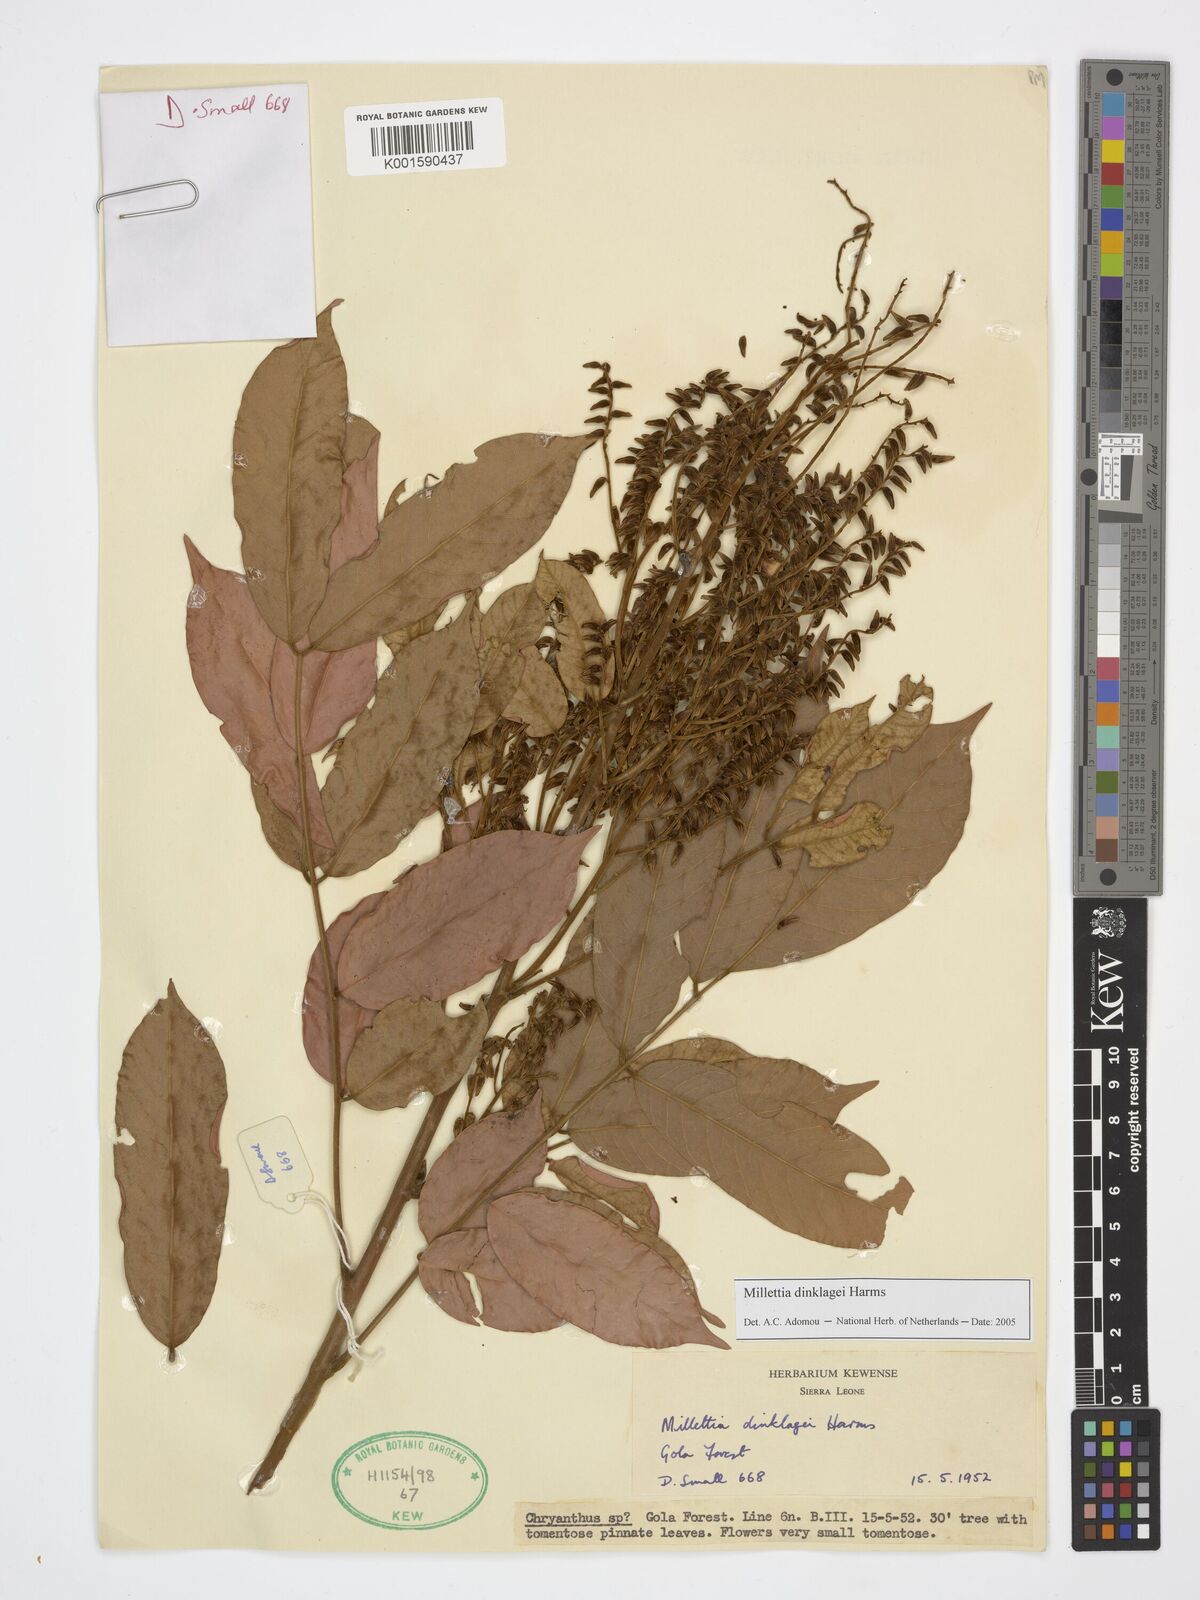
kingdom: Plantae
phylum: Tracheophyta
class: Magnoliopsida
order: Fabales
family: Fabaceae
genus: Millettia
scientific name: Millettia dinklagei
